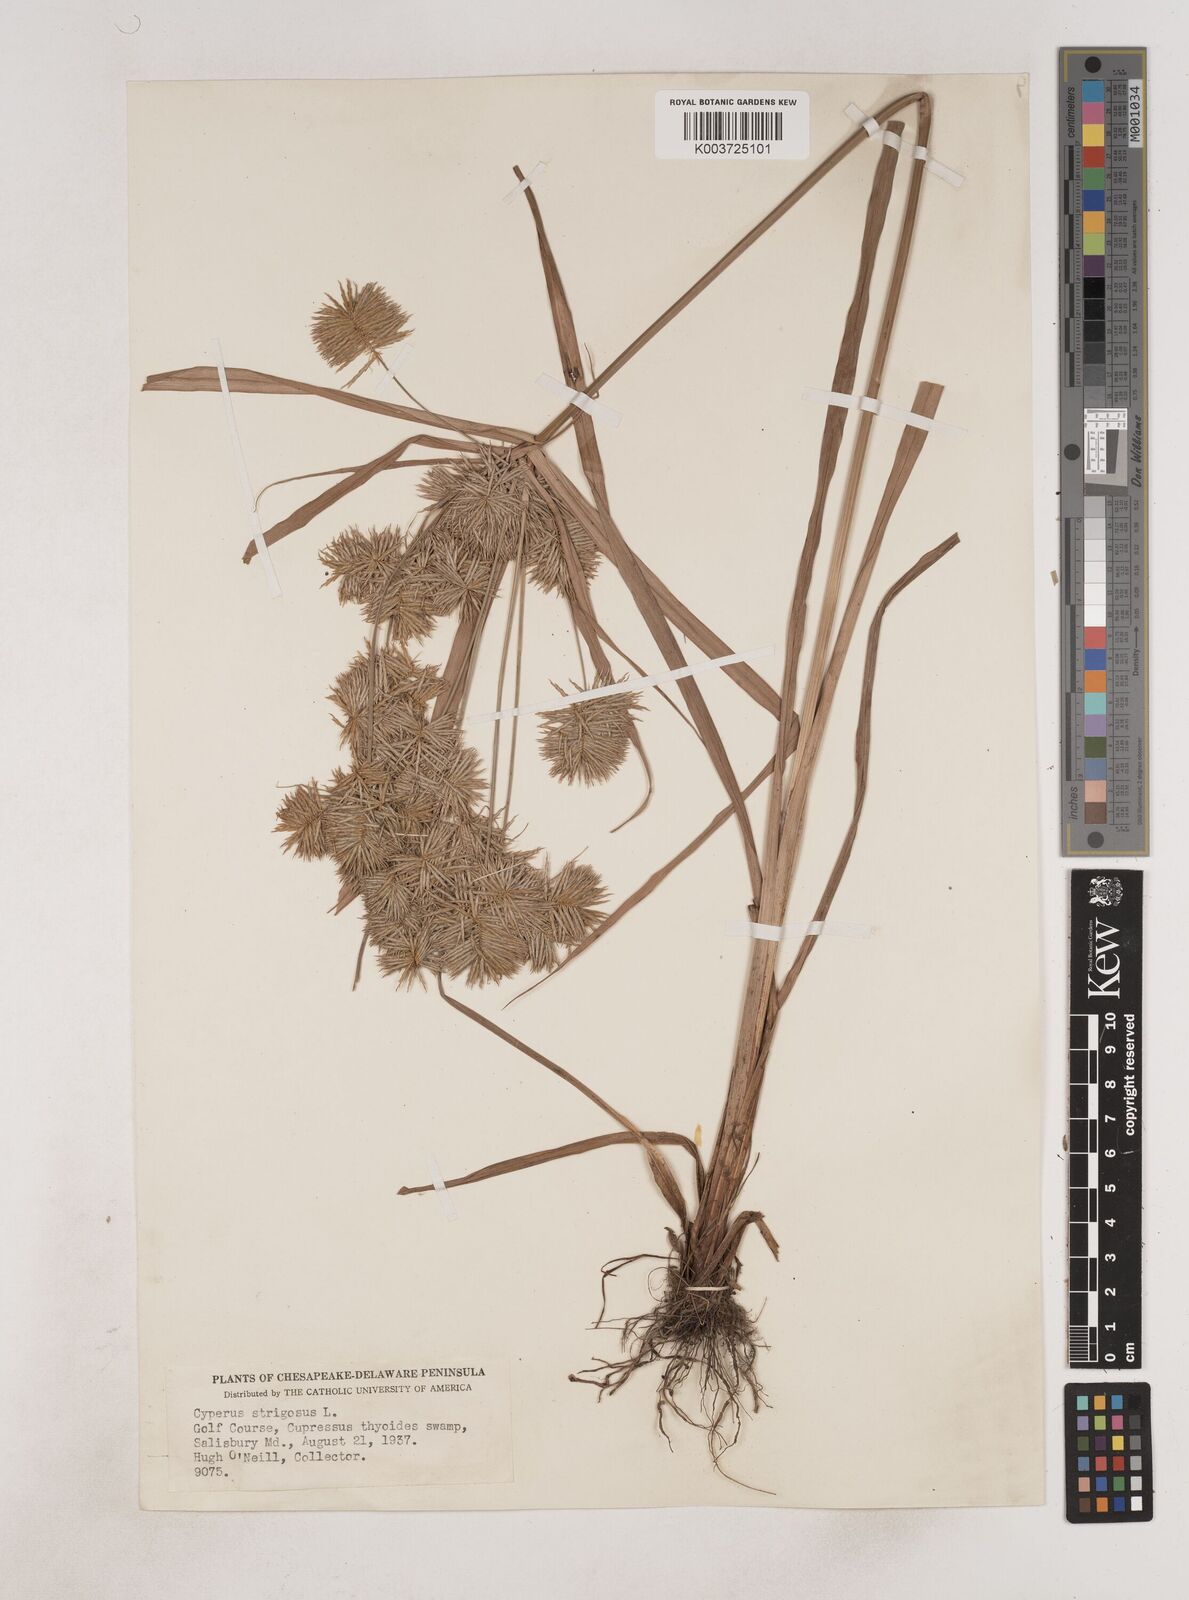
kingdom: Plantae
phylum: Tracheophyta
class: Liliopsida
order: Poales
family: Cyperaceae
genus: Cyperus
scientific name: Cyperus strigosus
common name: False nutsedge
